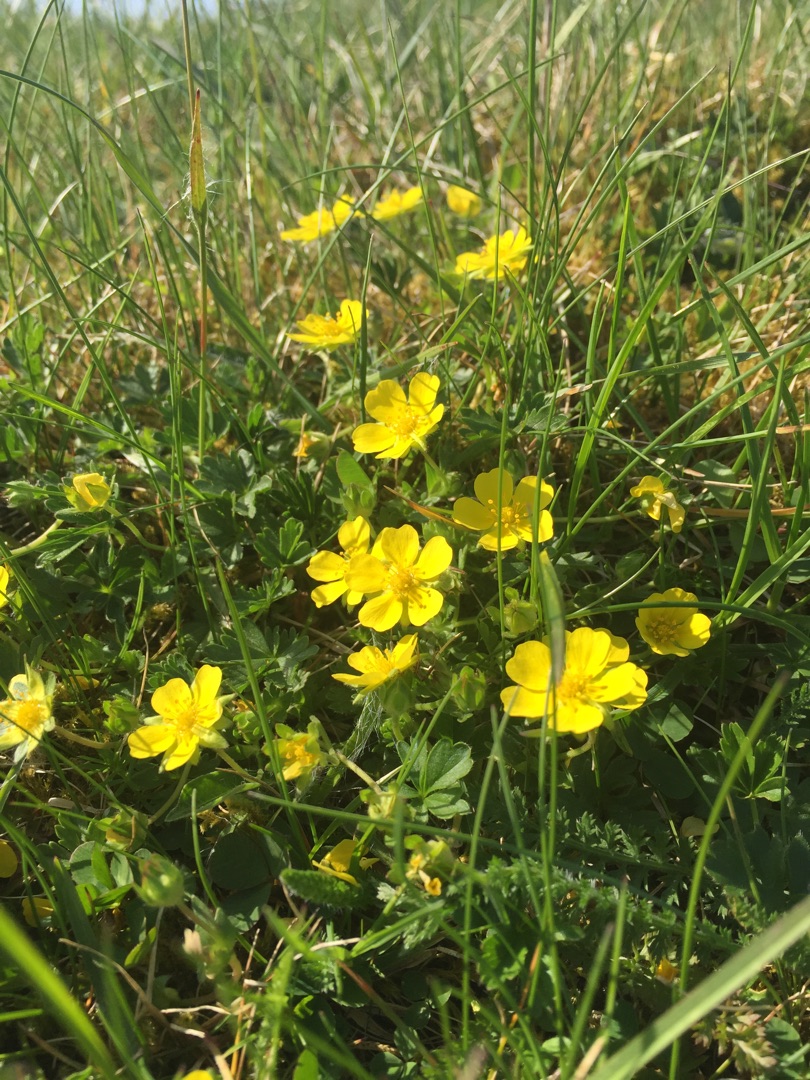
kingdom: Plantae
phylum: Tracheophyta
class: Magnoliopsida
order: Rosales
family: Rosaceae
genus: Potentilla
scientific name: Potentilla verna
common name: Vår-potentil
